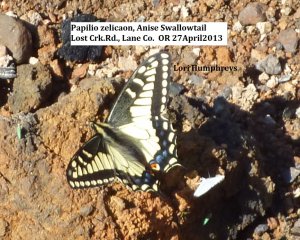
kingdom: Animalia
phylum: Arthropoda
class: Insecta
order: Lepidoptera
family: Papilionidae
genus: Papilio
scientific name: Papilio zelicaon
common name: Anise Swallowtail
